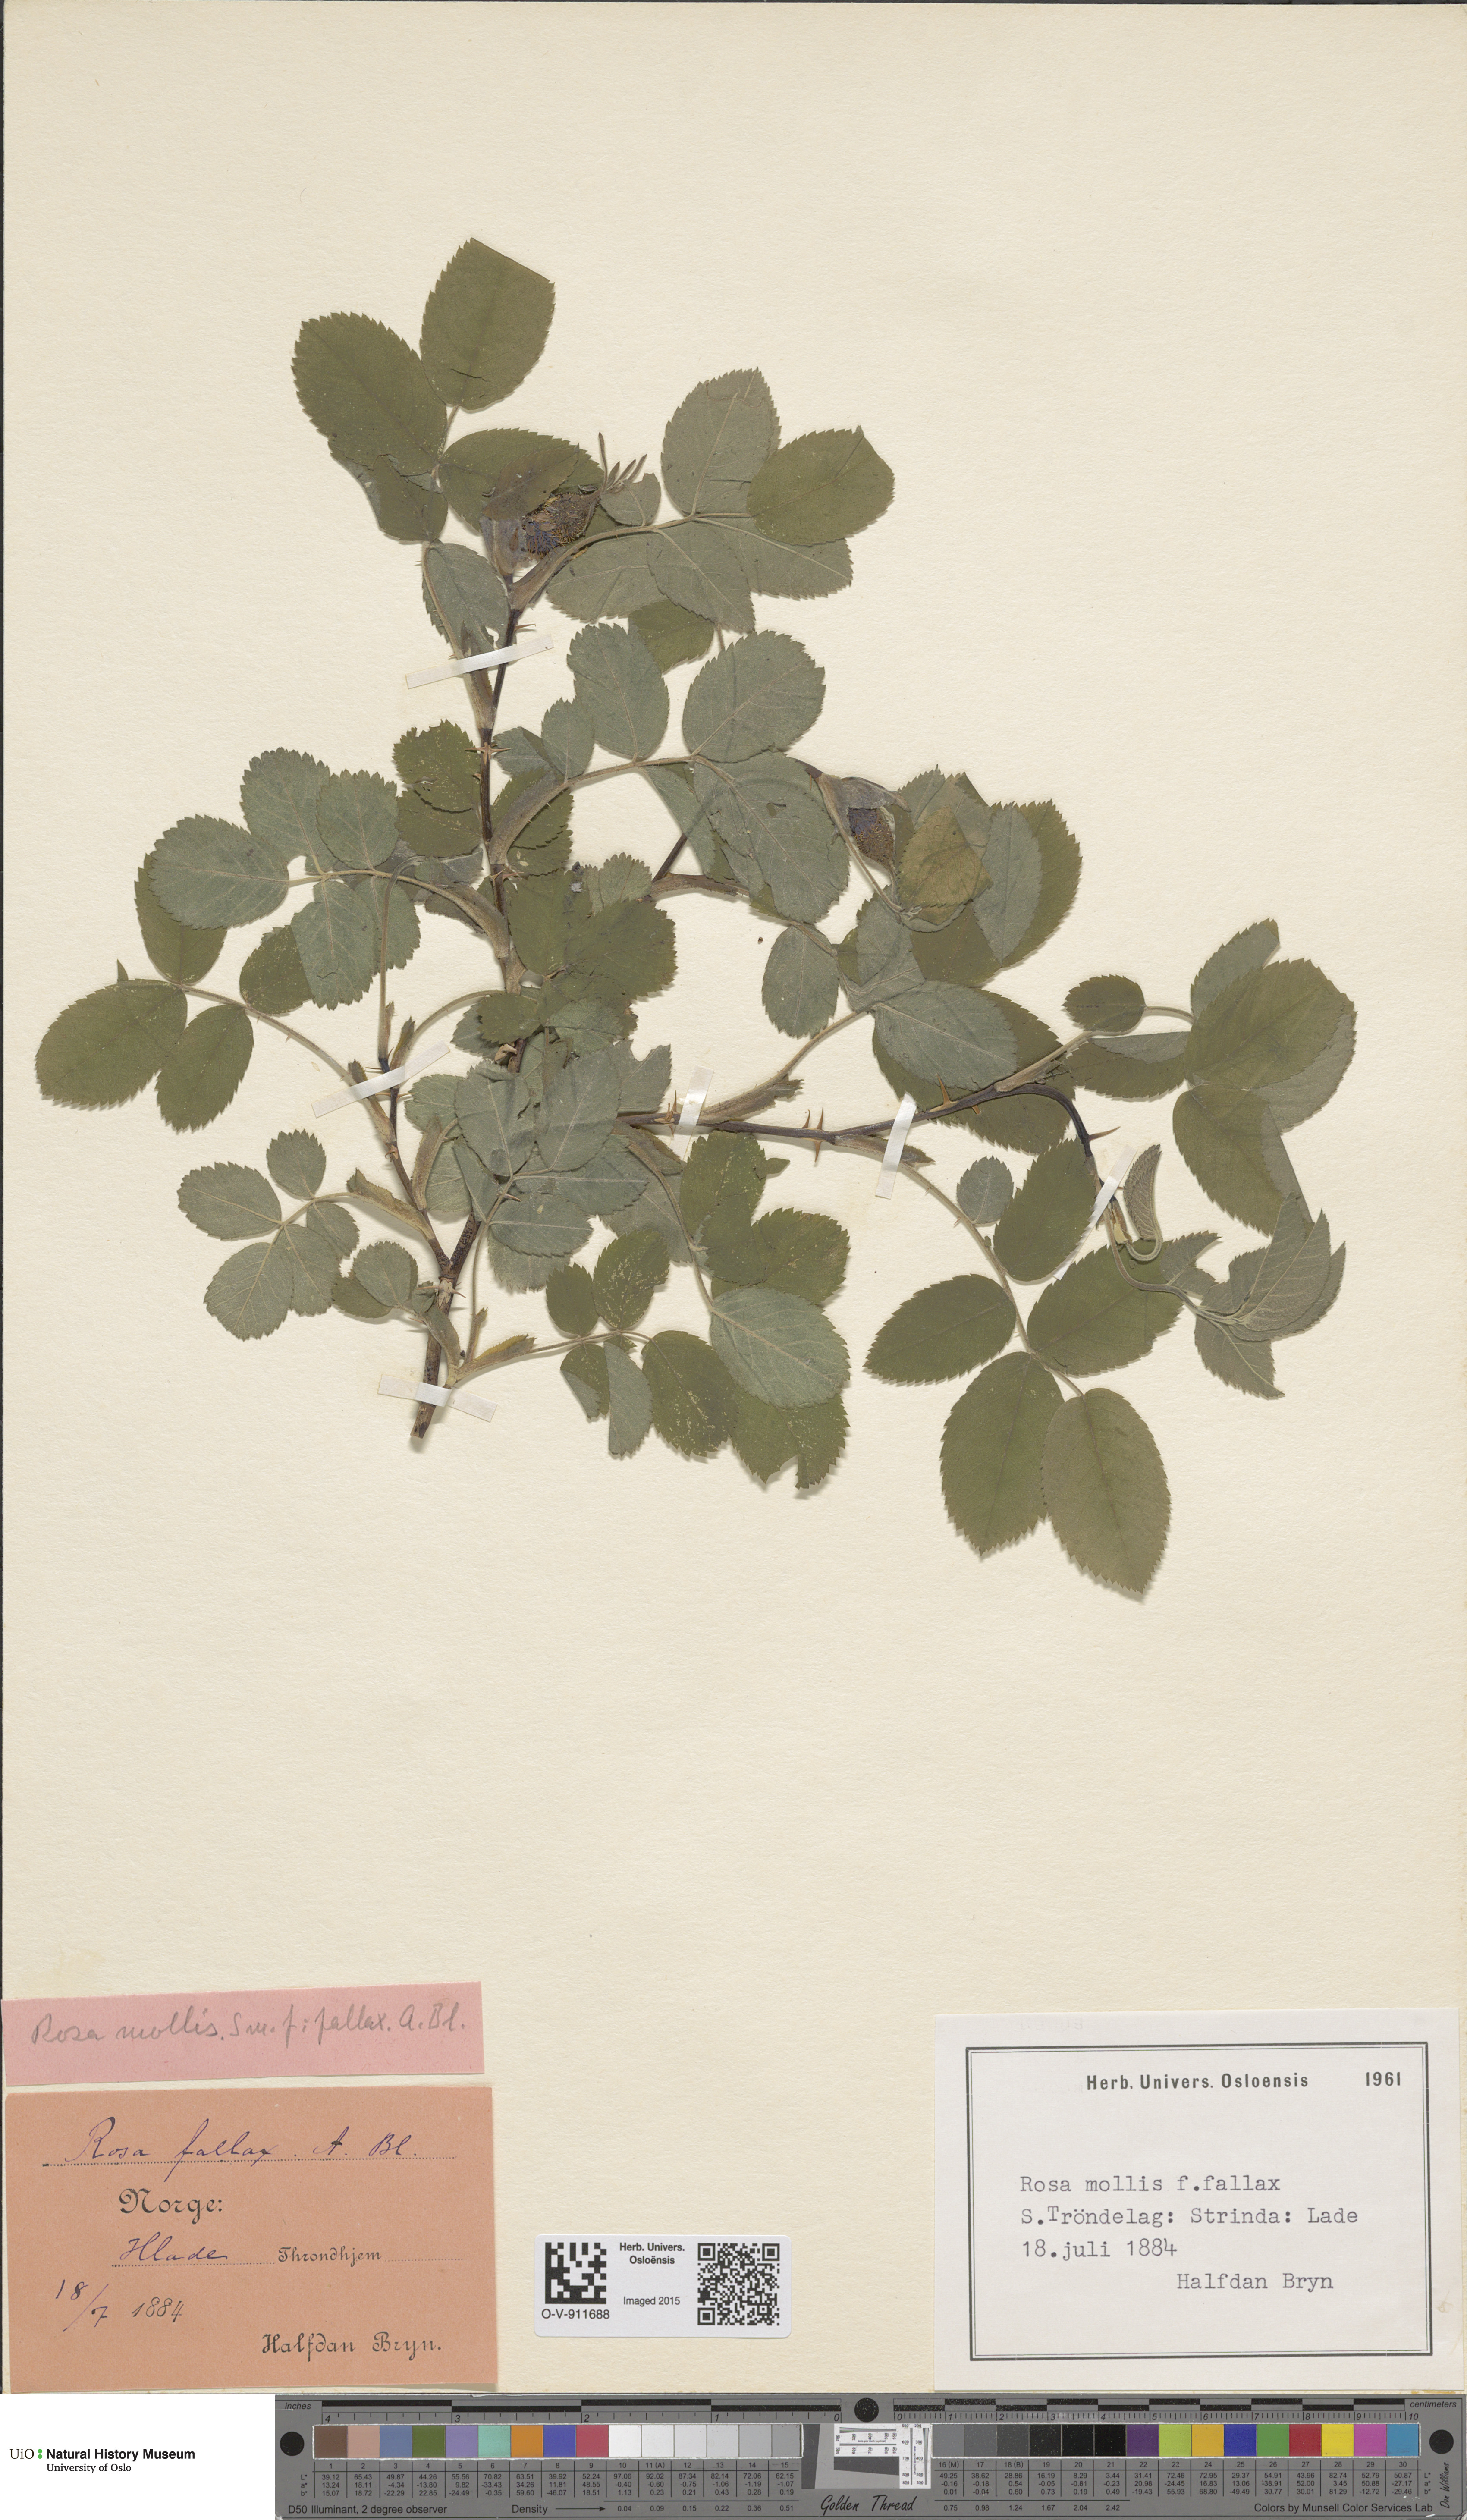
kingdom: Plantae
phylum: Tracheophyta
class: Magnoliopsida
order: Rosales
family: Rosaceae
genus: Rosa
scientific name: Rosa mollis
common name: Rose
